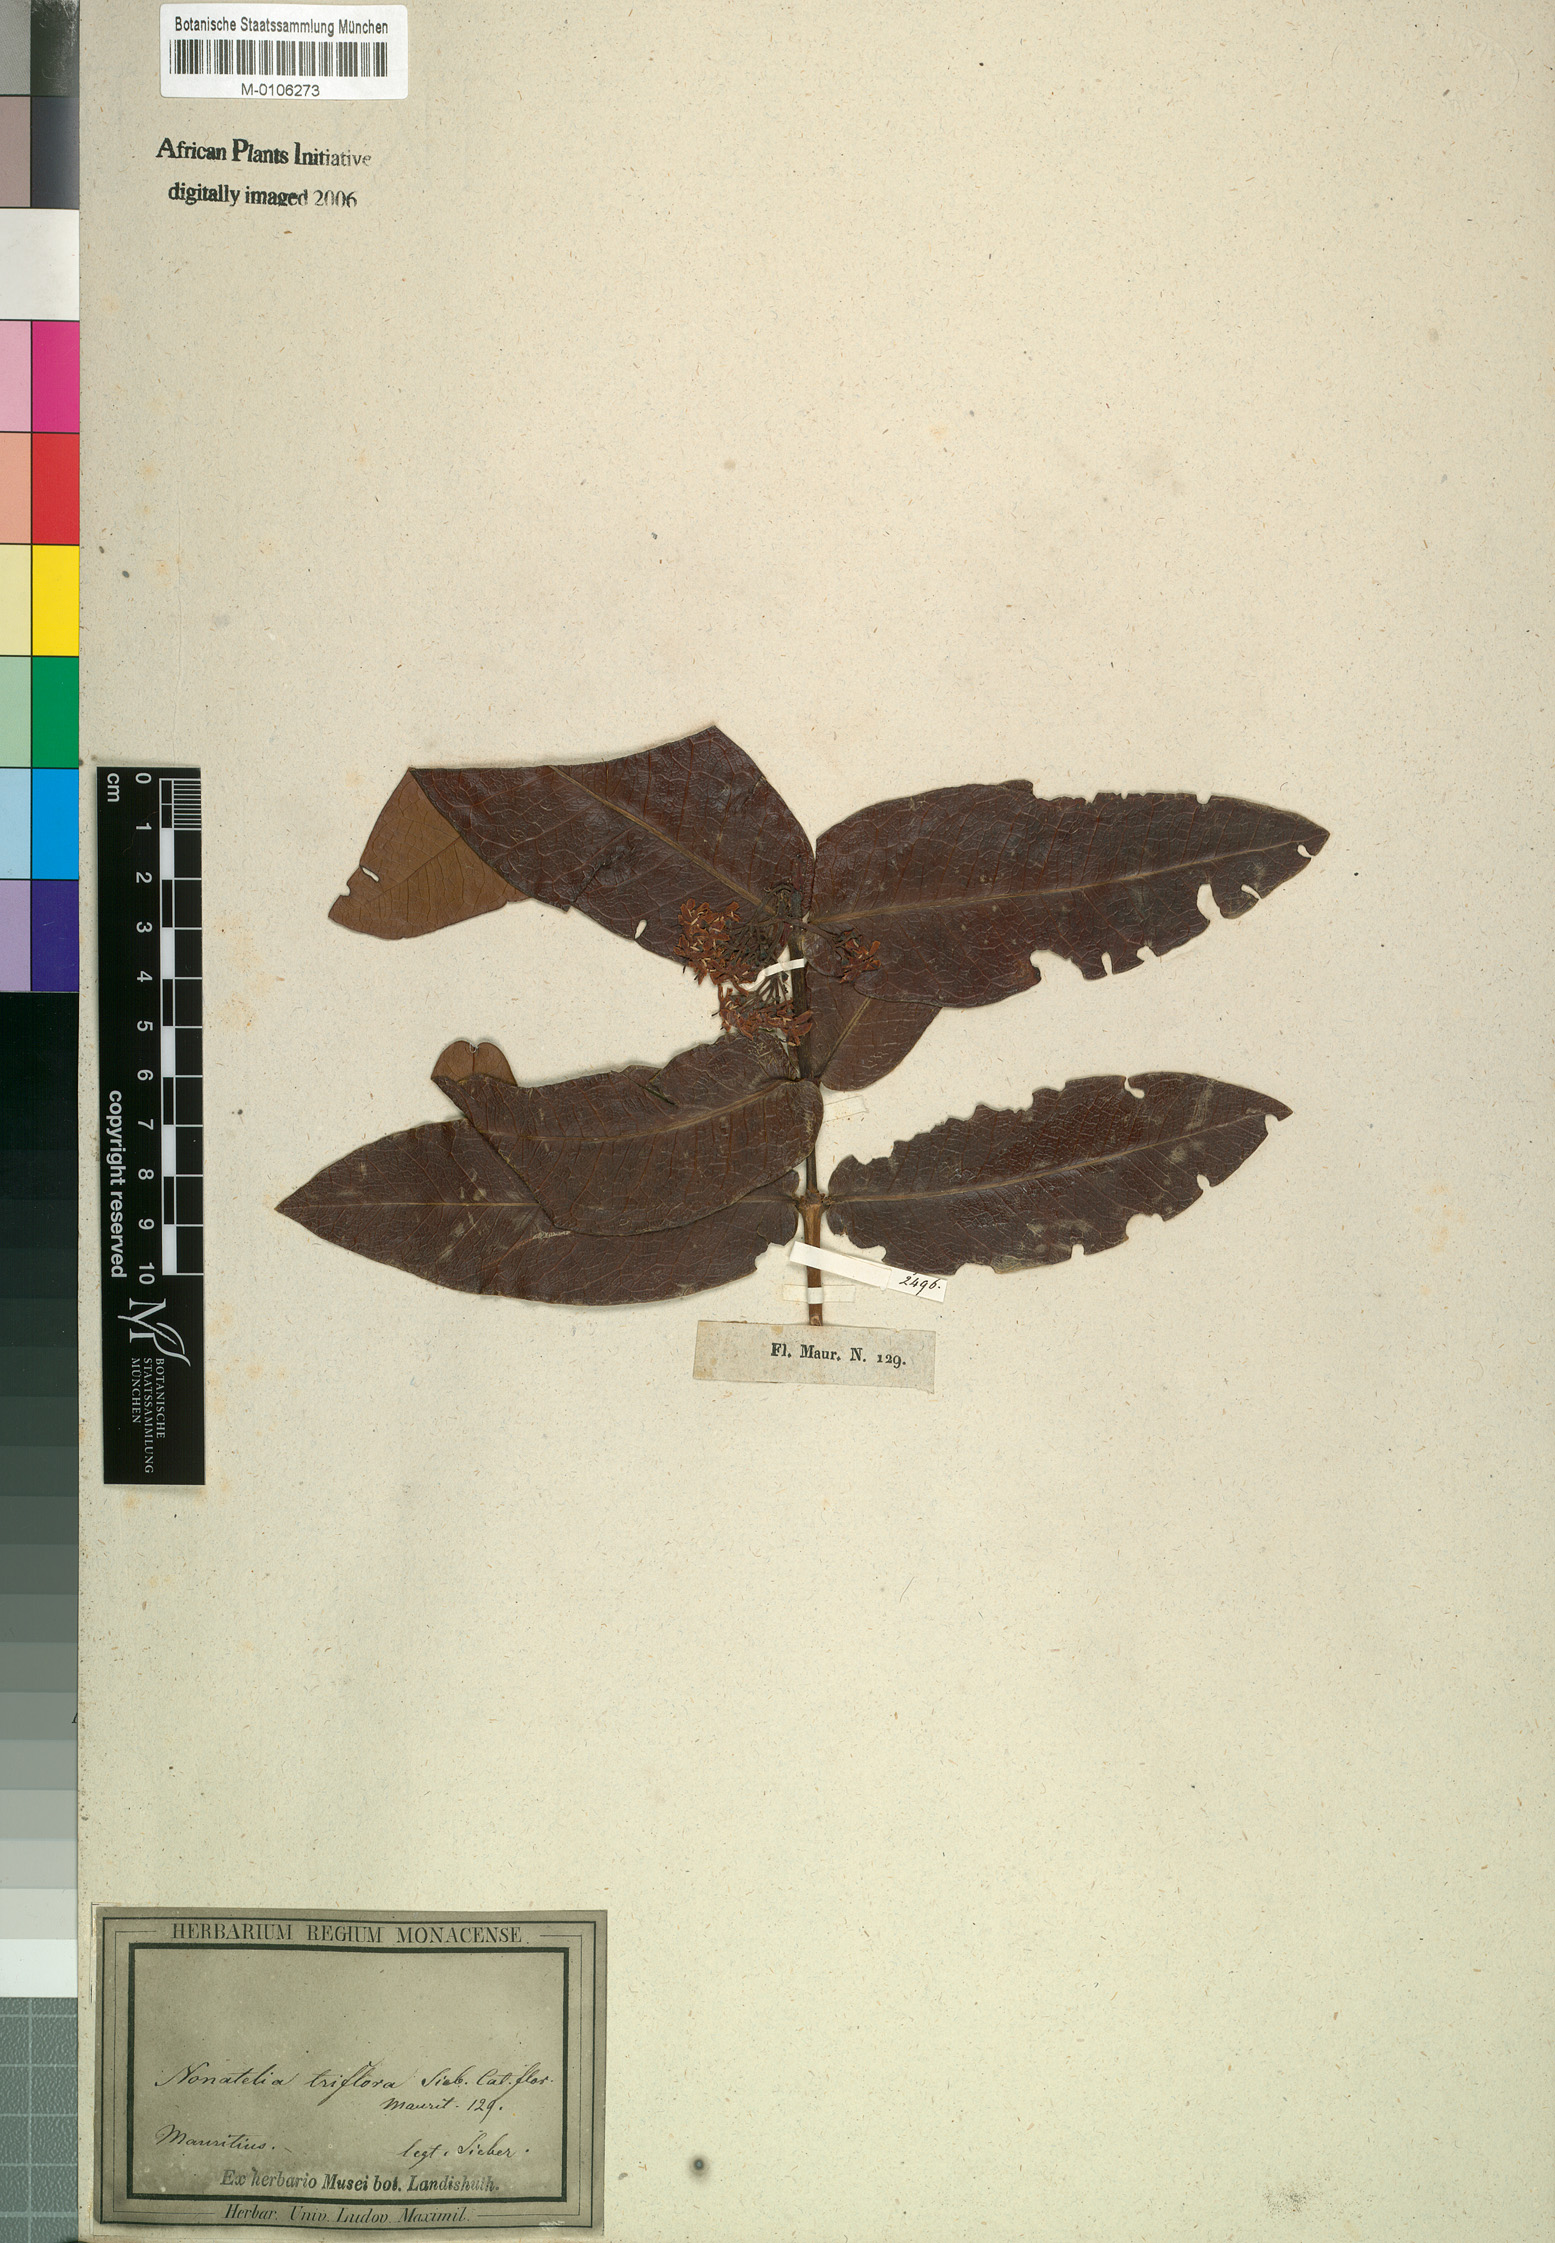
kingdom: Plantae
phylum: Tracheophyta
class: Magnoliopsida
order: Gentianales
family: Rubiaceae
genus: Ixora
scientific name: Ixora parviflora
